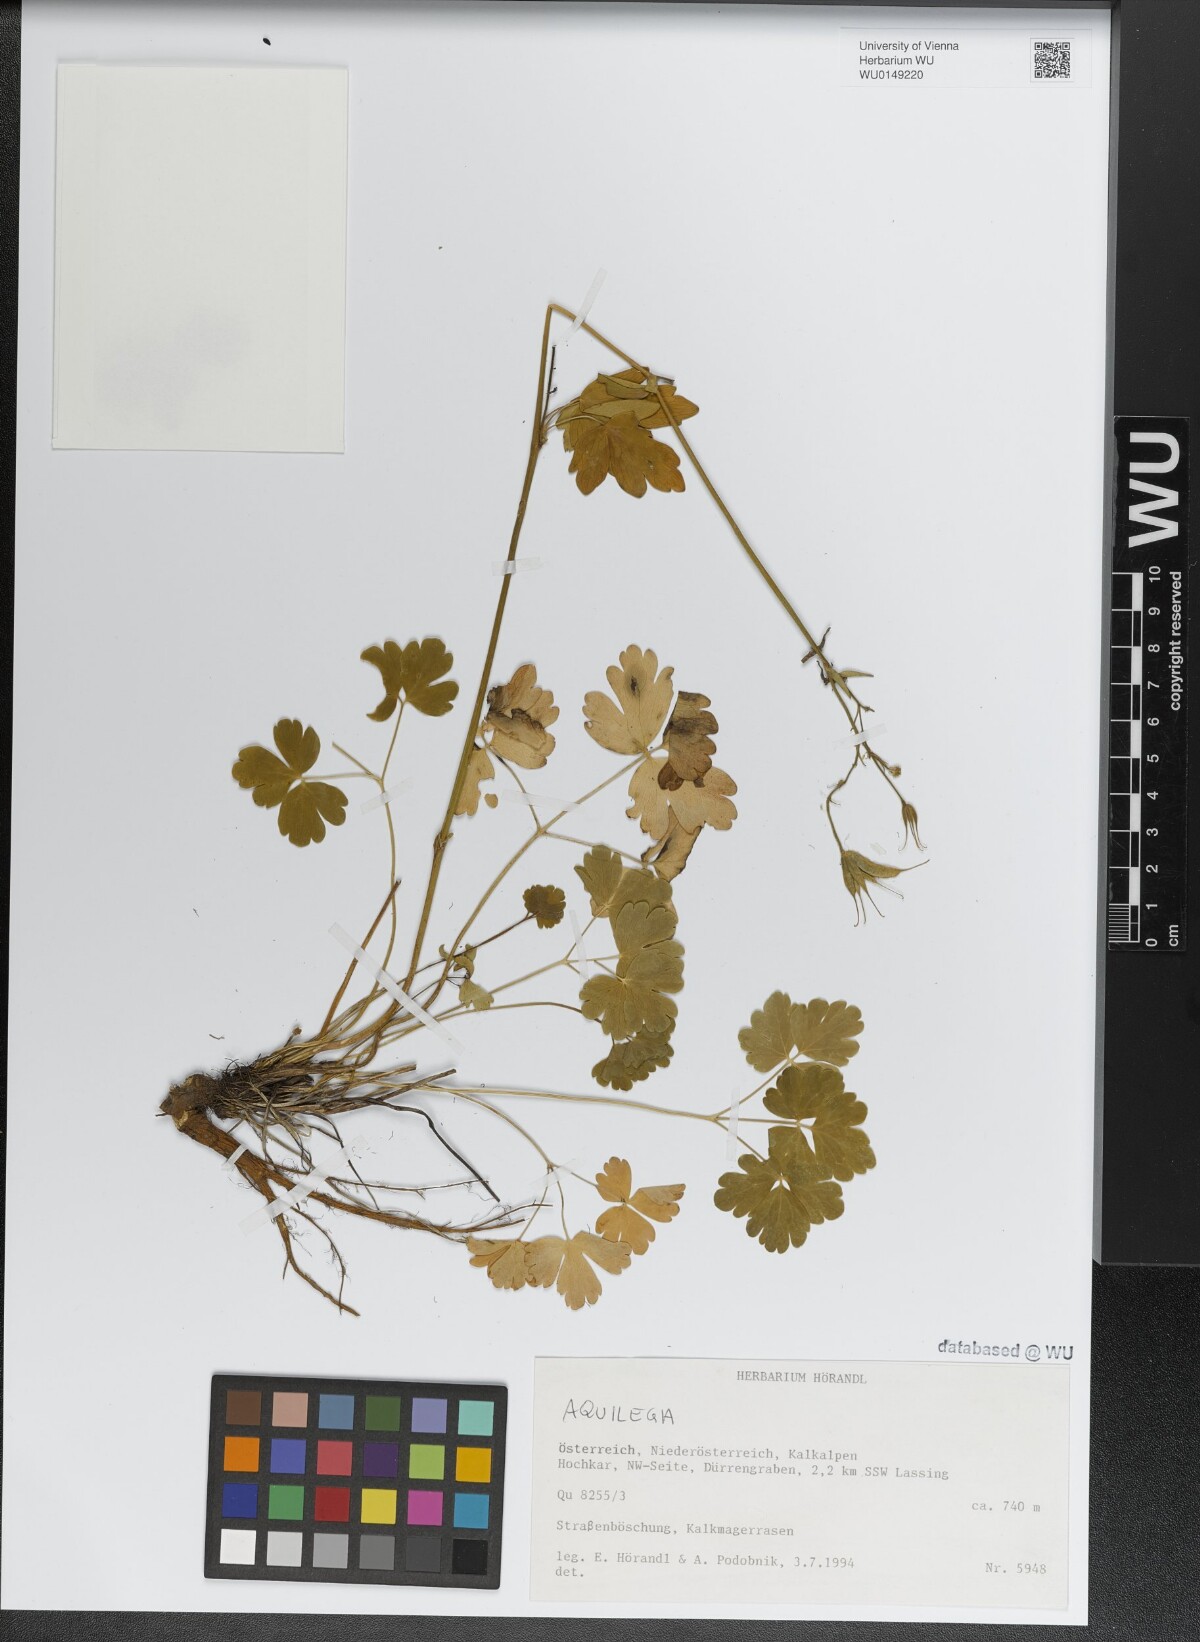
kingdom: Plantae
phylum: Tracheophyta
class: Magnoliopsida
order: Ranunculales
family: Ranunculaceae
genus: Aquilegia
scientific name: Aquilegia
